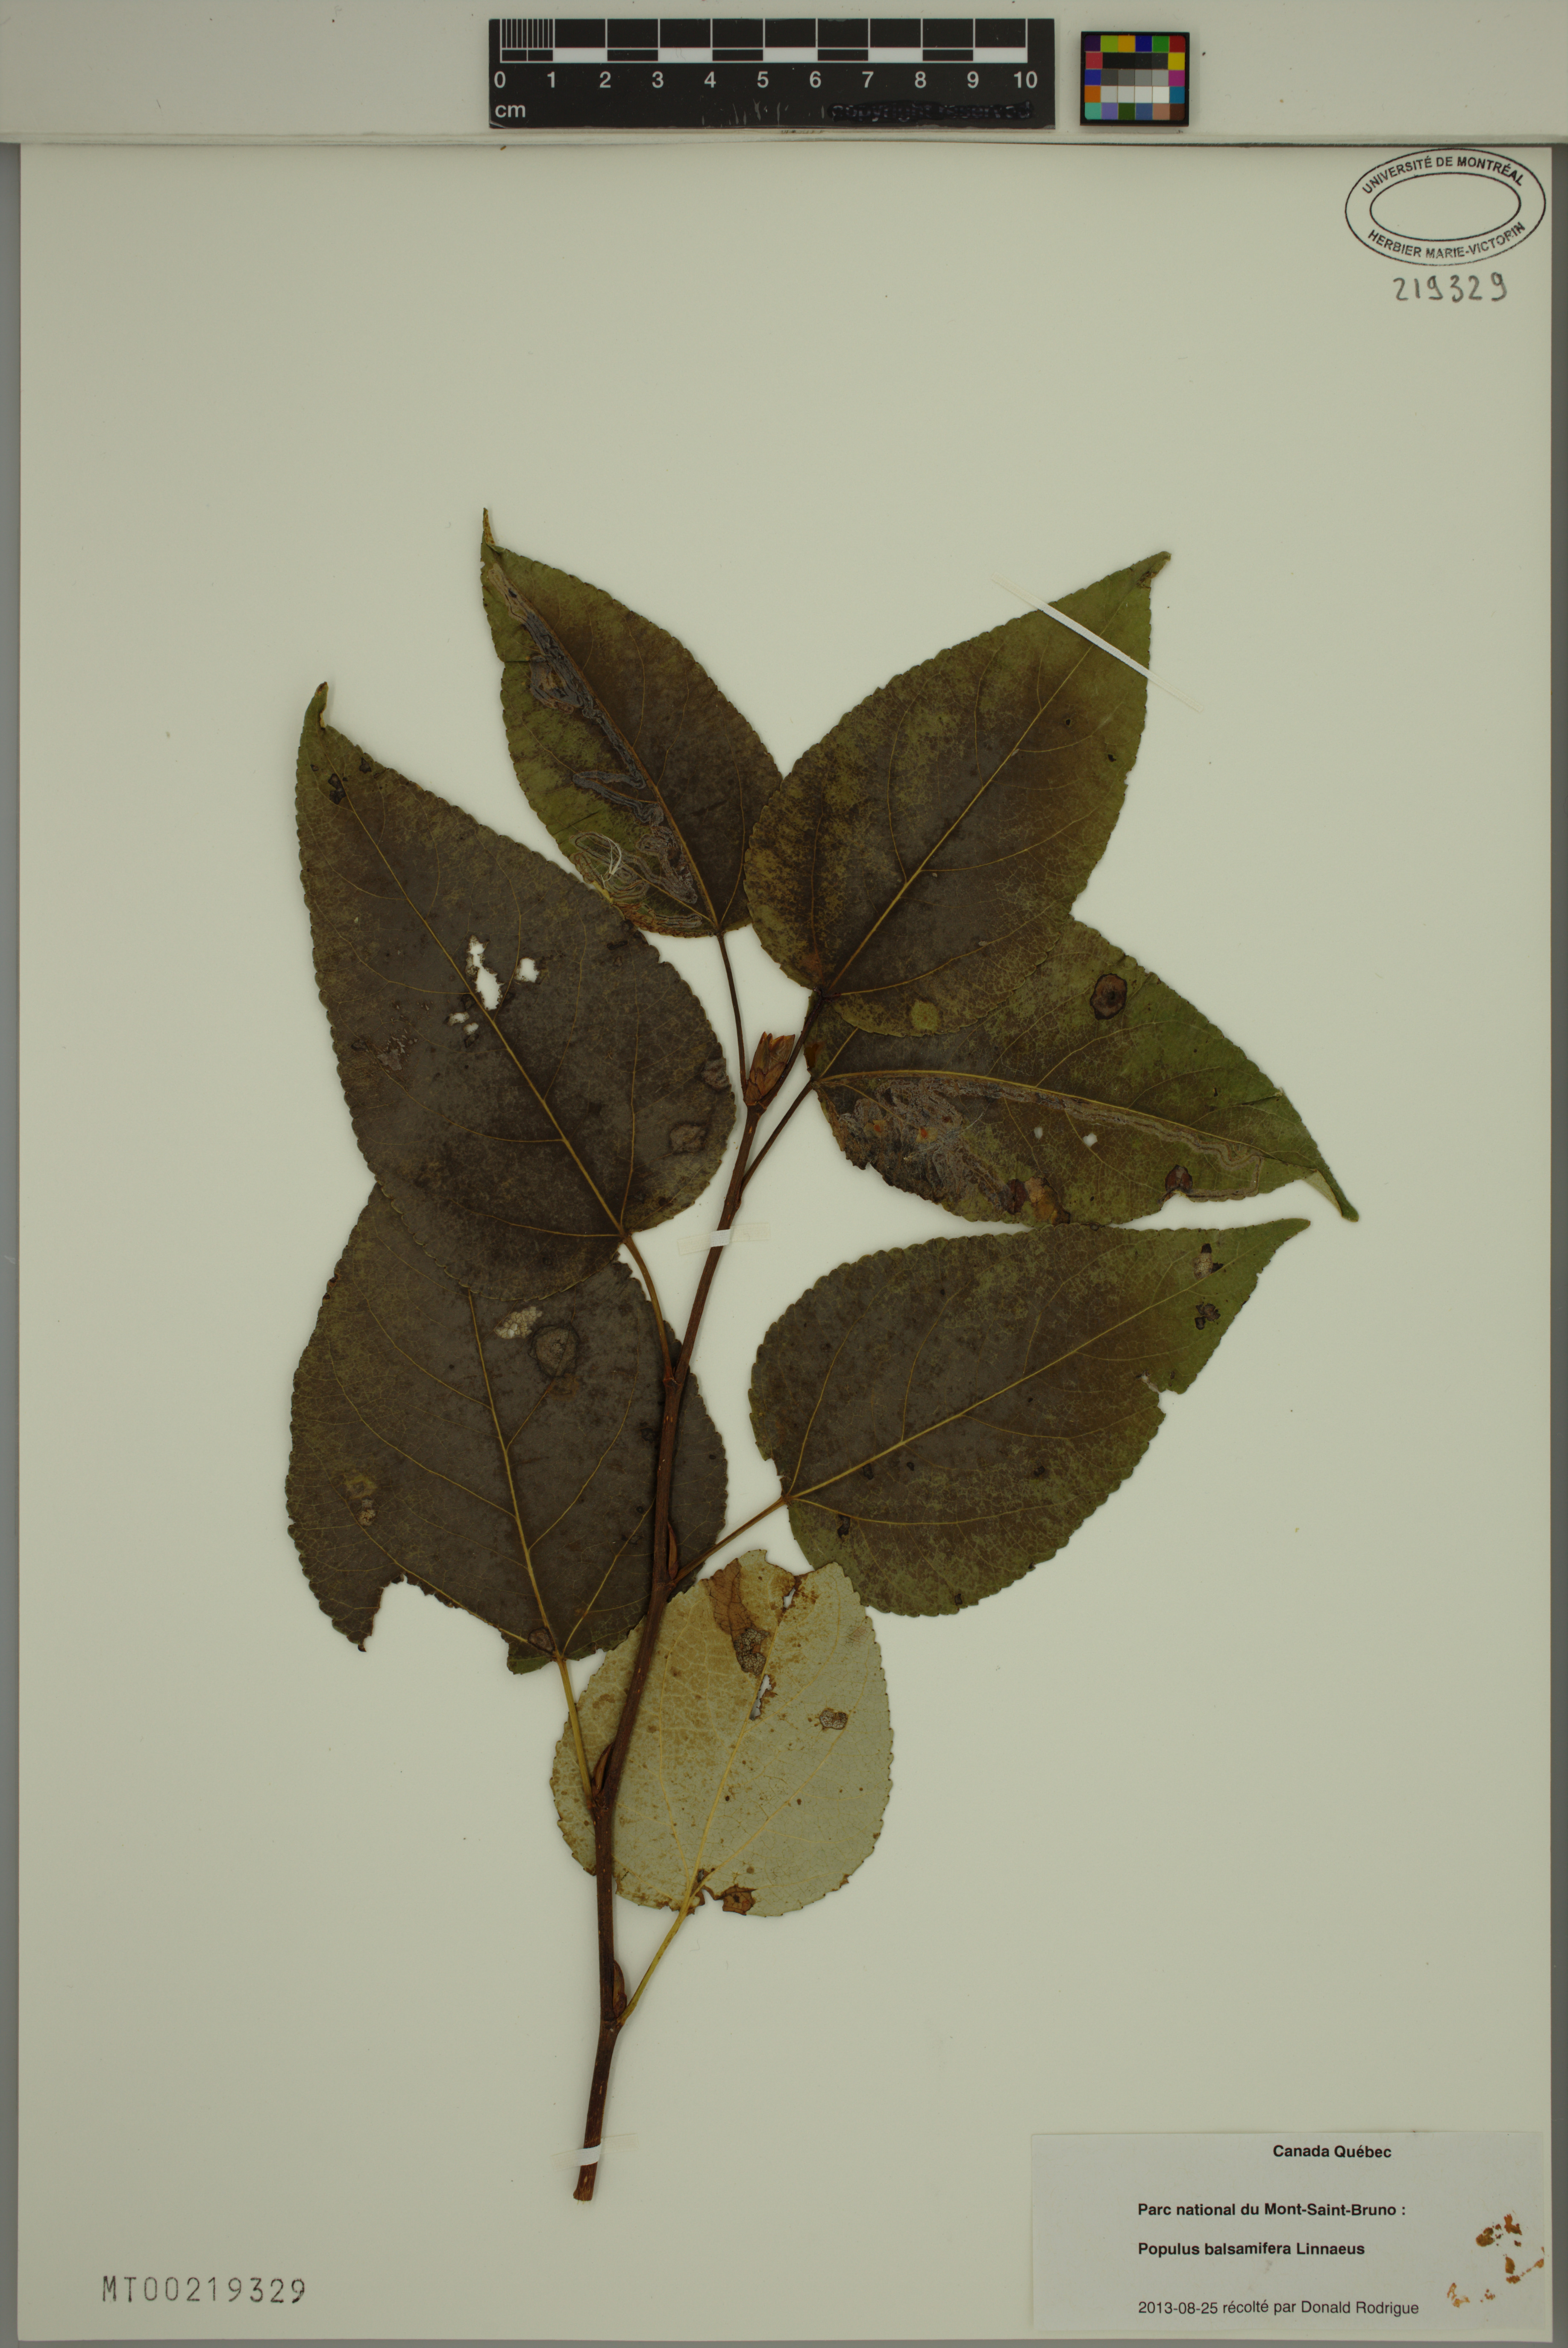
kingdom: Plantae
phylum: Tracheophyta
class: Magnoliopsida
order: Malpighiales
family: Salicaceae
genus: Populus
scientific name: Populus balsamifera
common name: Balsam poplar
